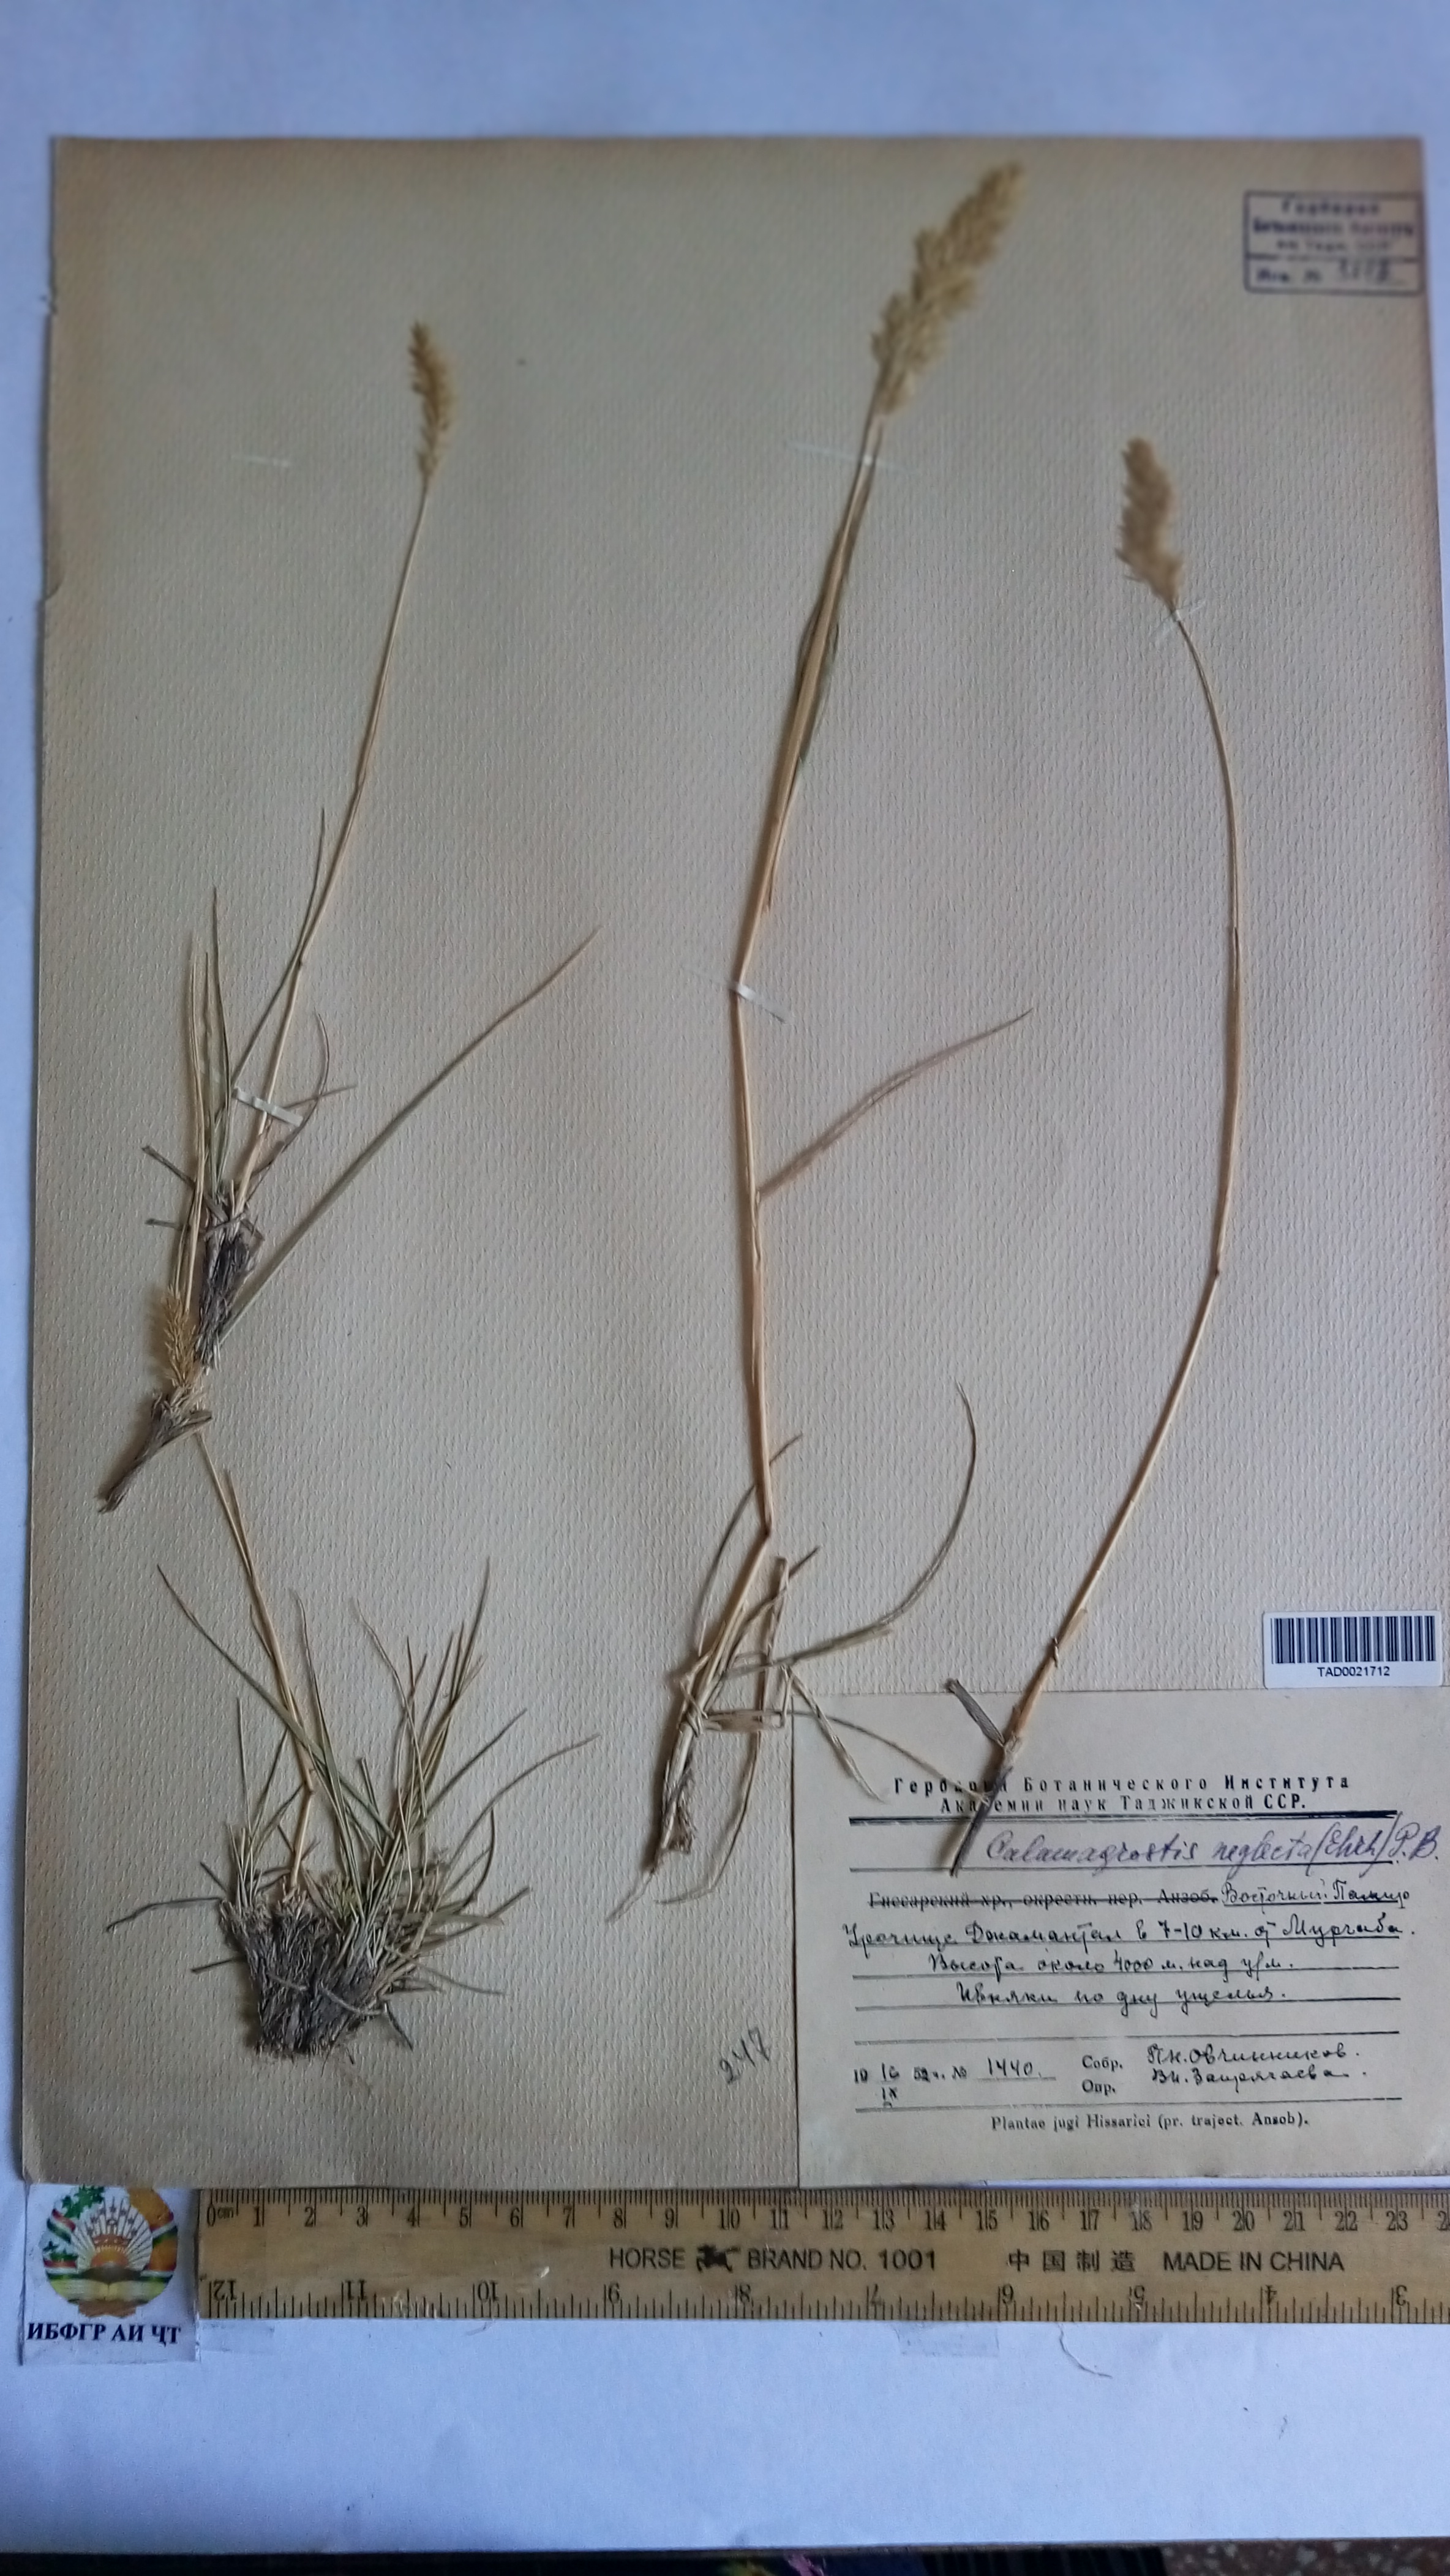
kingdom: Plantae
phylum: Tracheophyta
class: Liliopsida
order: Poales
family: Poaceae
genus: Achnatherum
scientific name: Achnatherum calamagrostis
